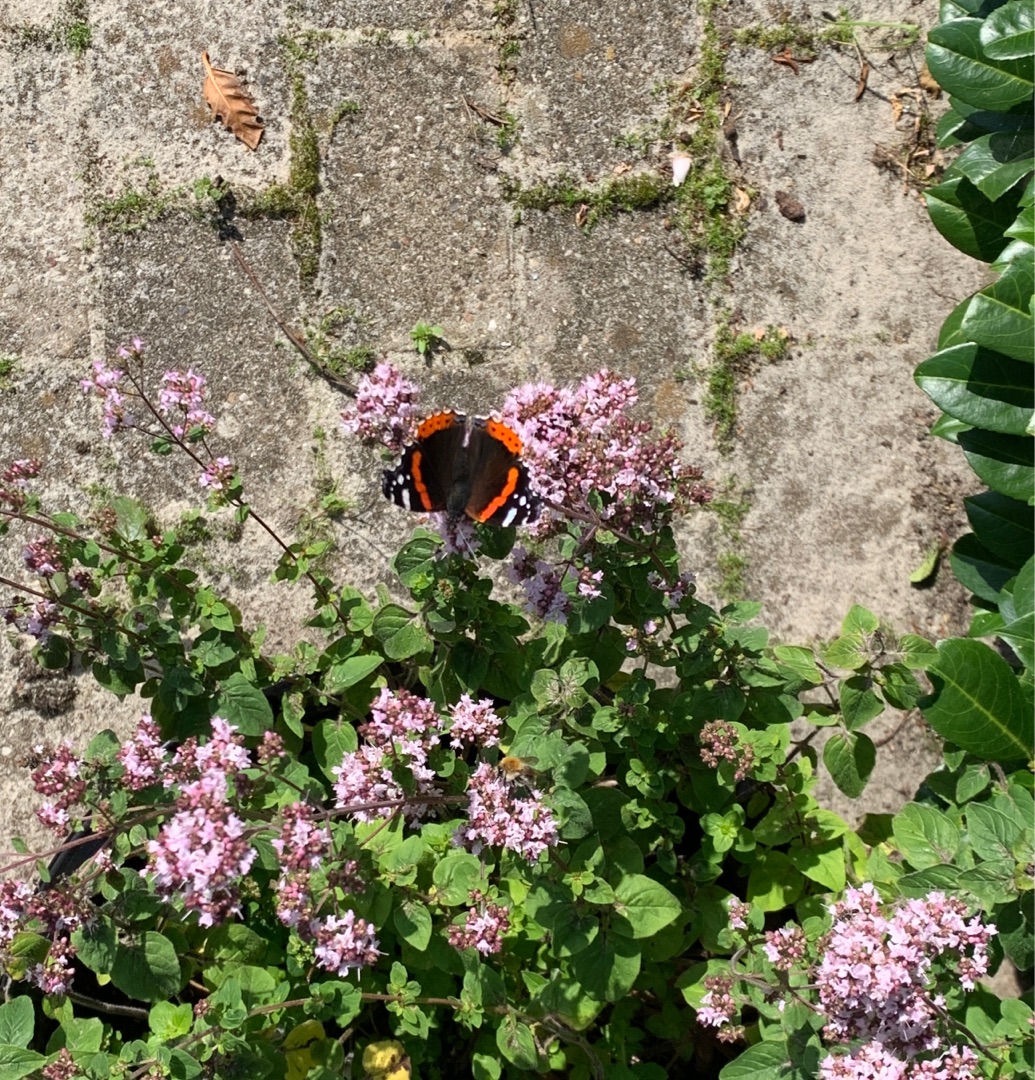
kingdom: Animalia
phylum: Arthropoda
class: Insecta
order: Lepidoptera
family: Nymphalidae
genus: Vanessa
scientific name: Vanessa atalanta
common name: Admiral
